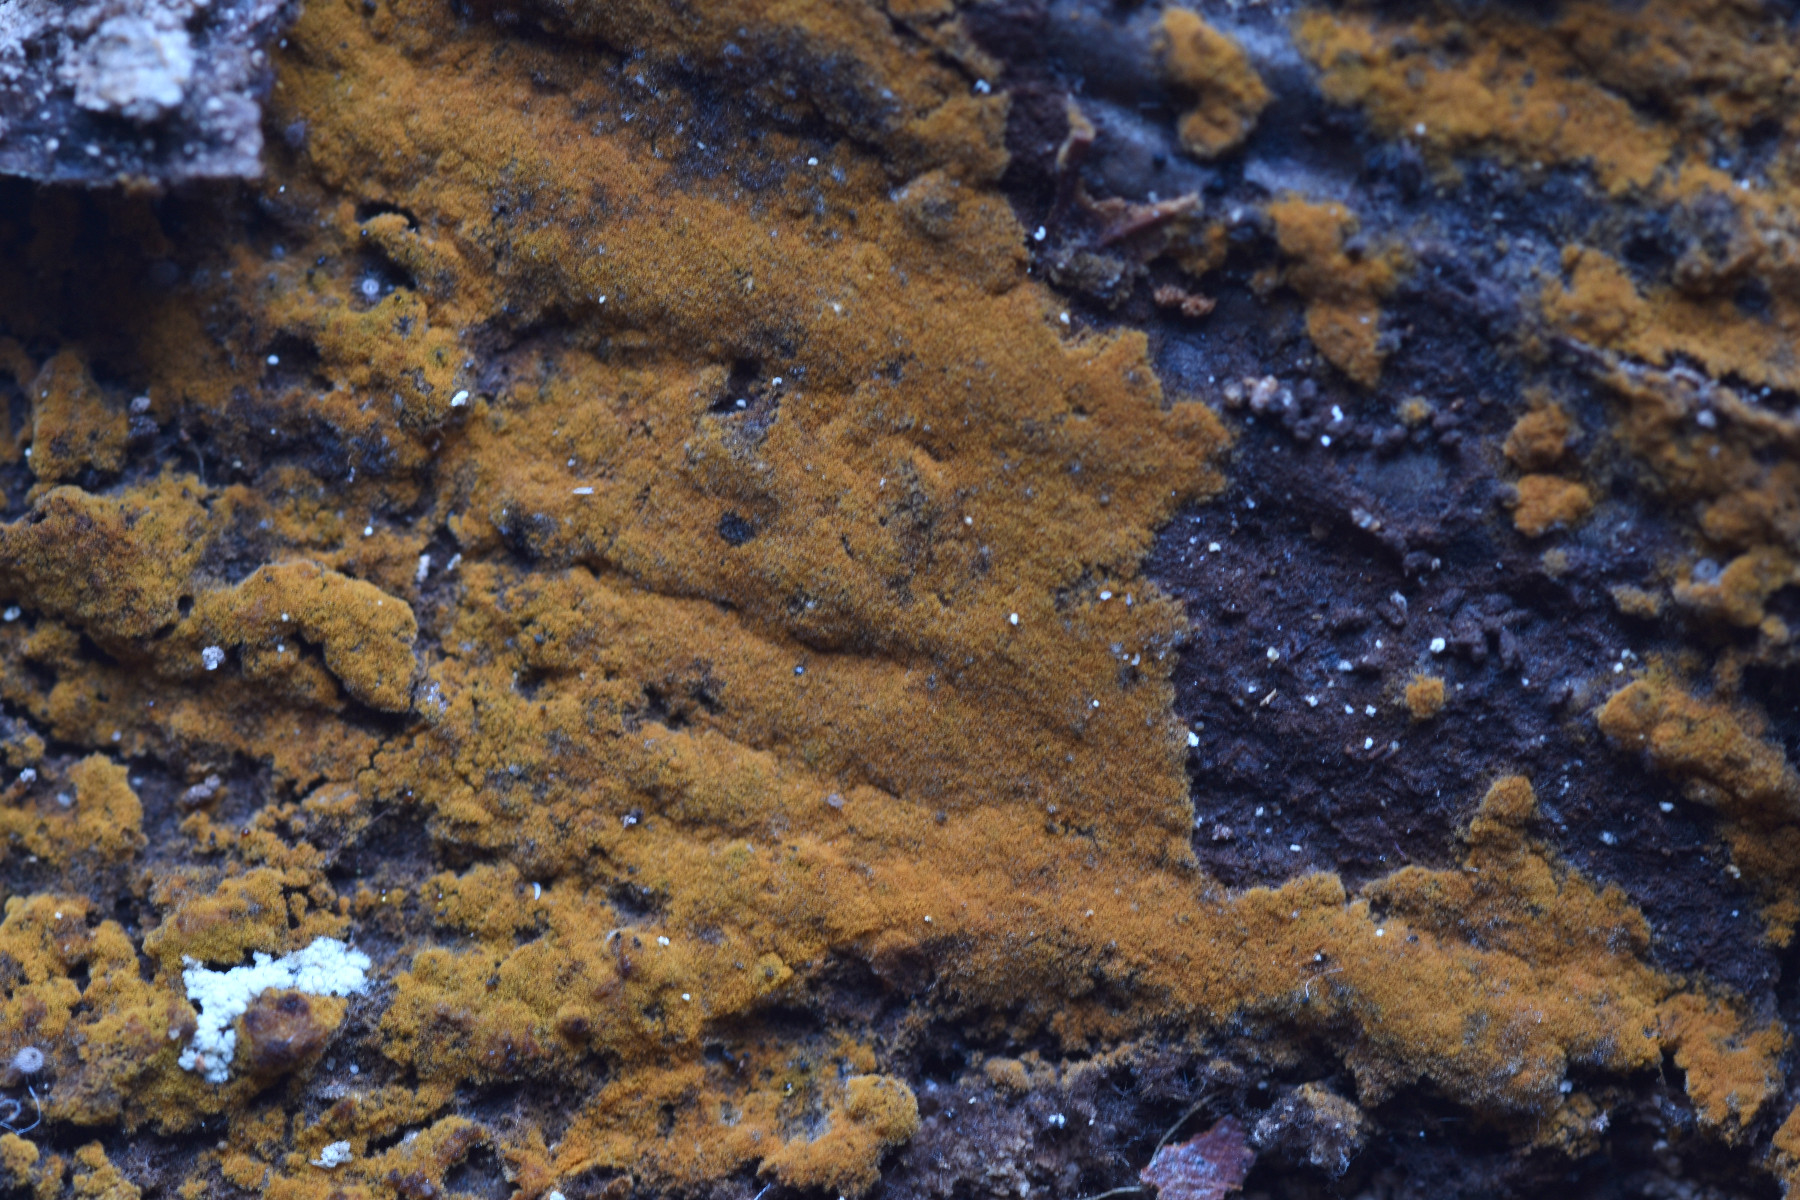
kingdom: Fungi
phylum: Basidiomycota
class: Agaricomycetes
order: Thelephorales
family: Thelephoraceae
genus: Tomentella
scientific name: Tomentella bryophila
